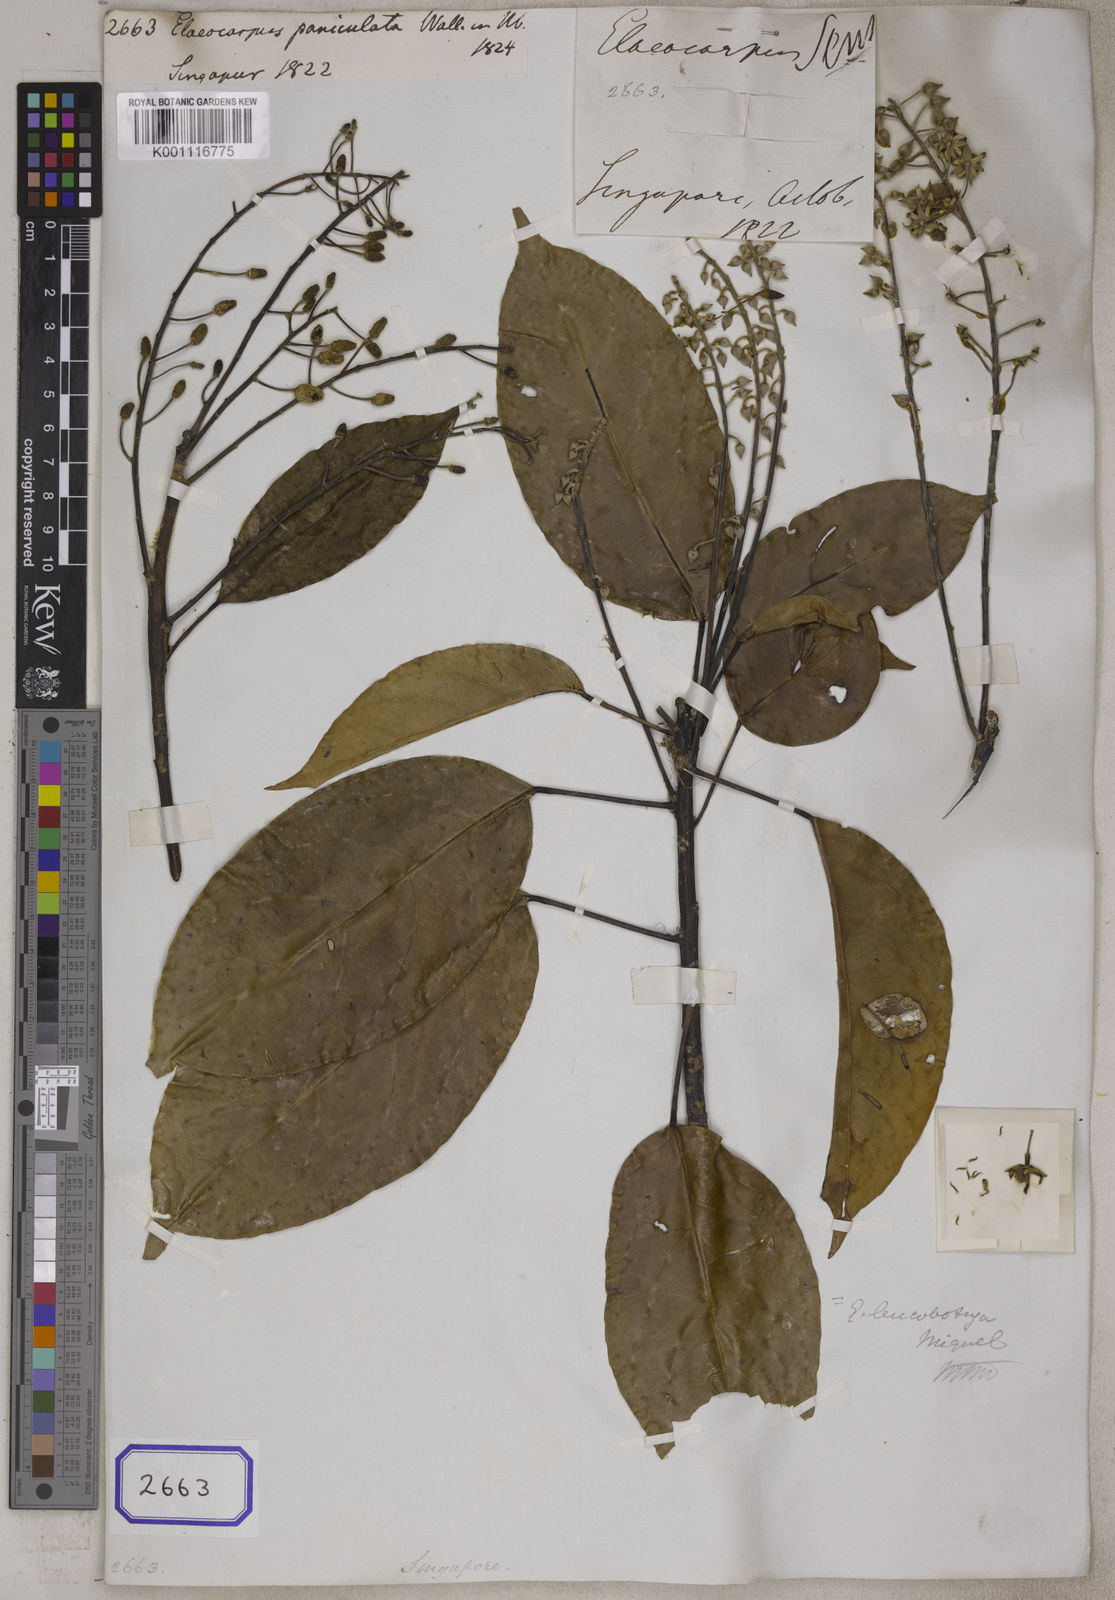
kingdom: Plantae
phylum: Tracheophyta
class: Magnoliopsida
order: Oxalidales
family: Elaeocarpaceae
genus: Elaeocarpus
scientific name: Elaeocarpus
